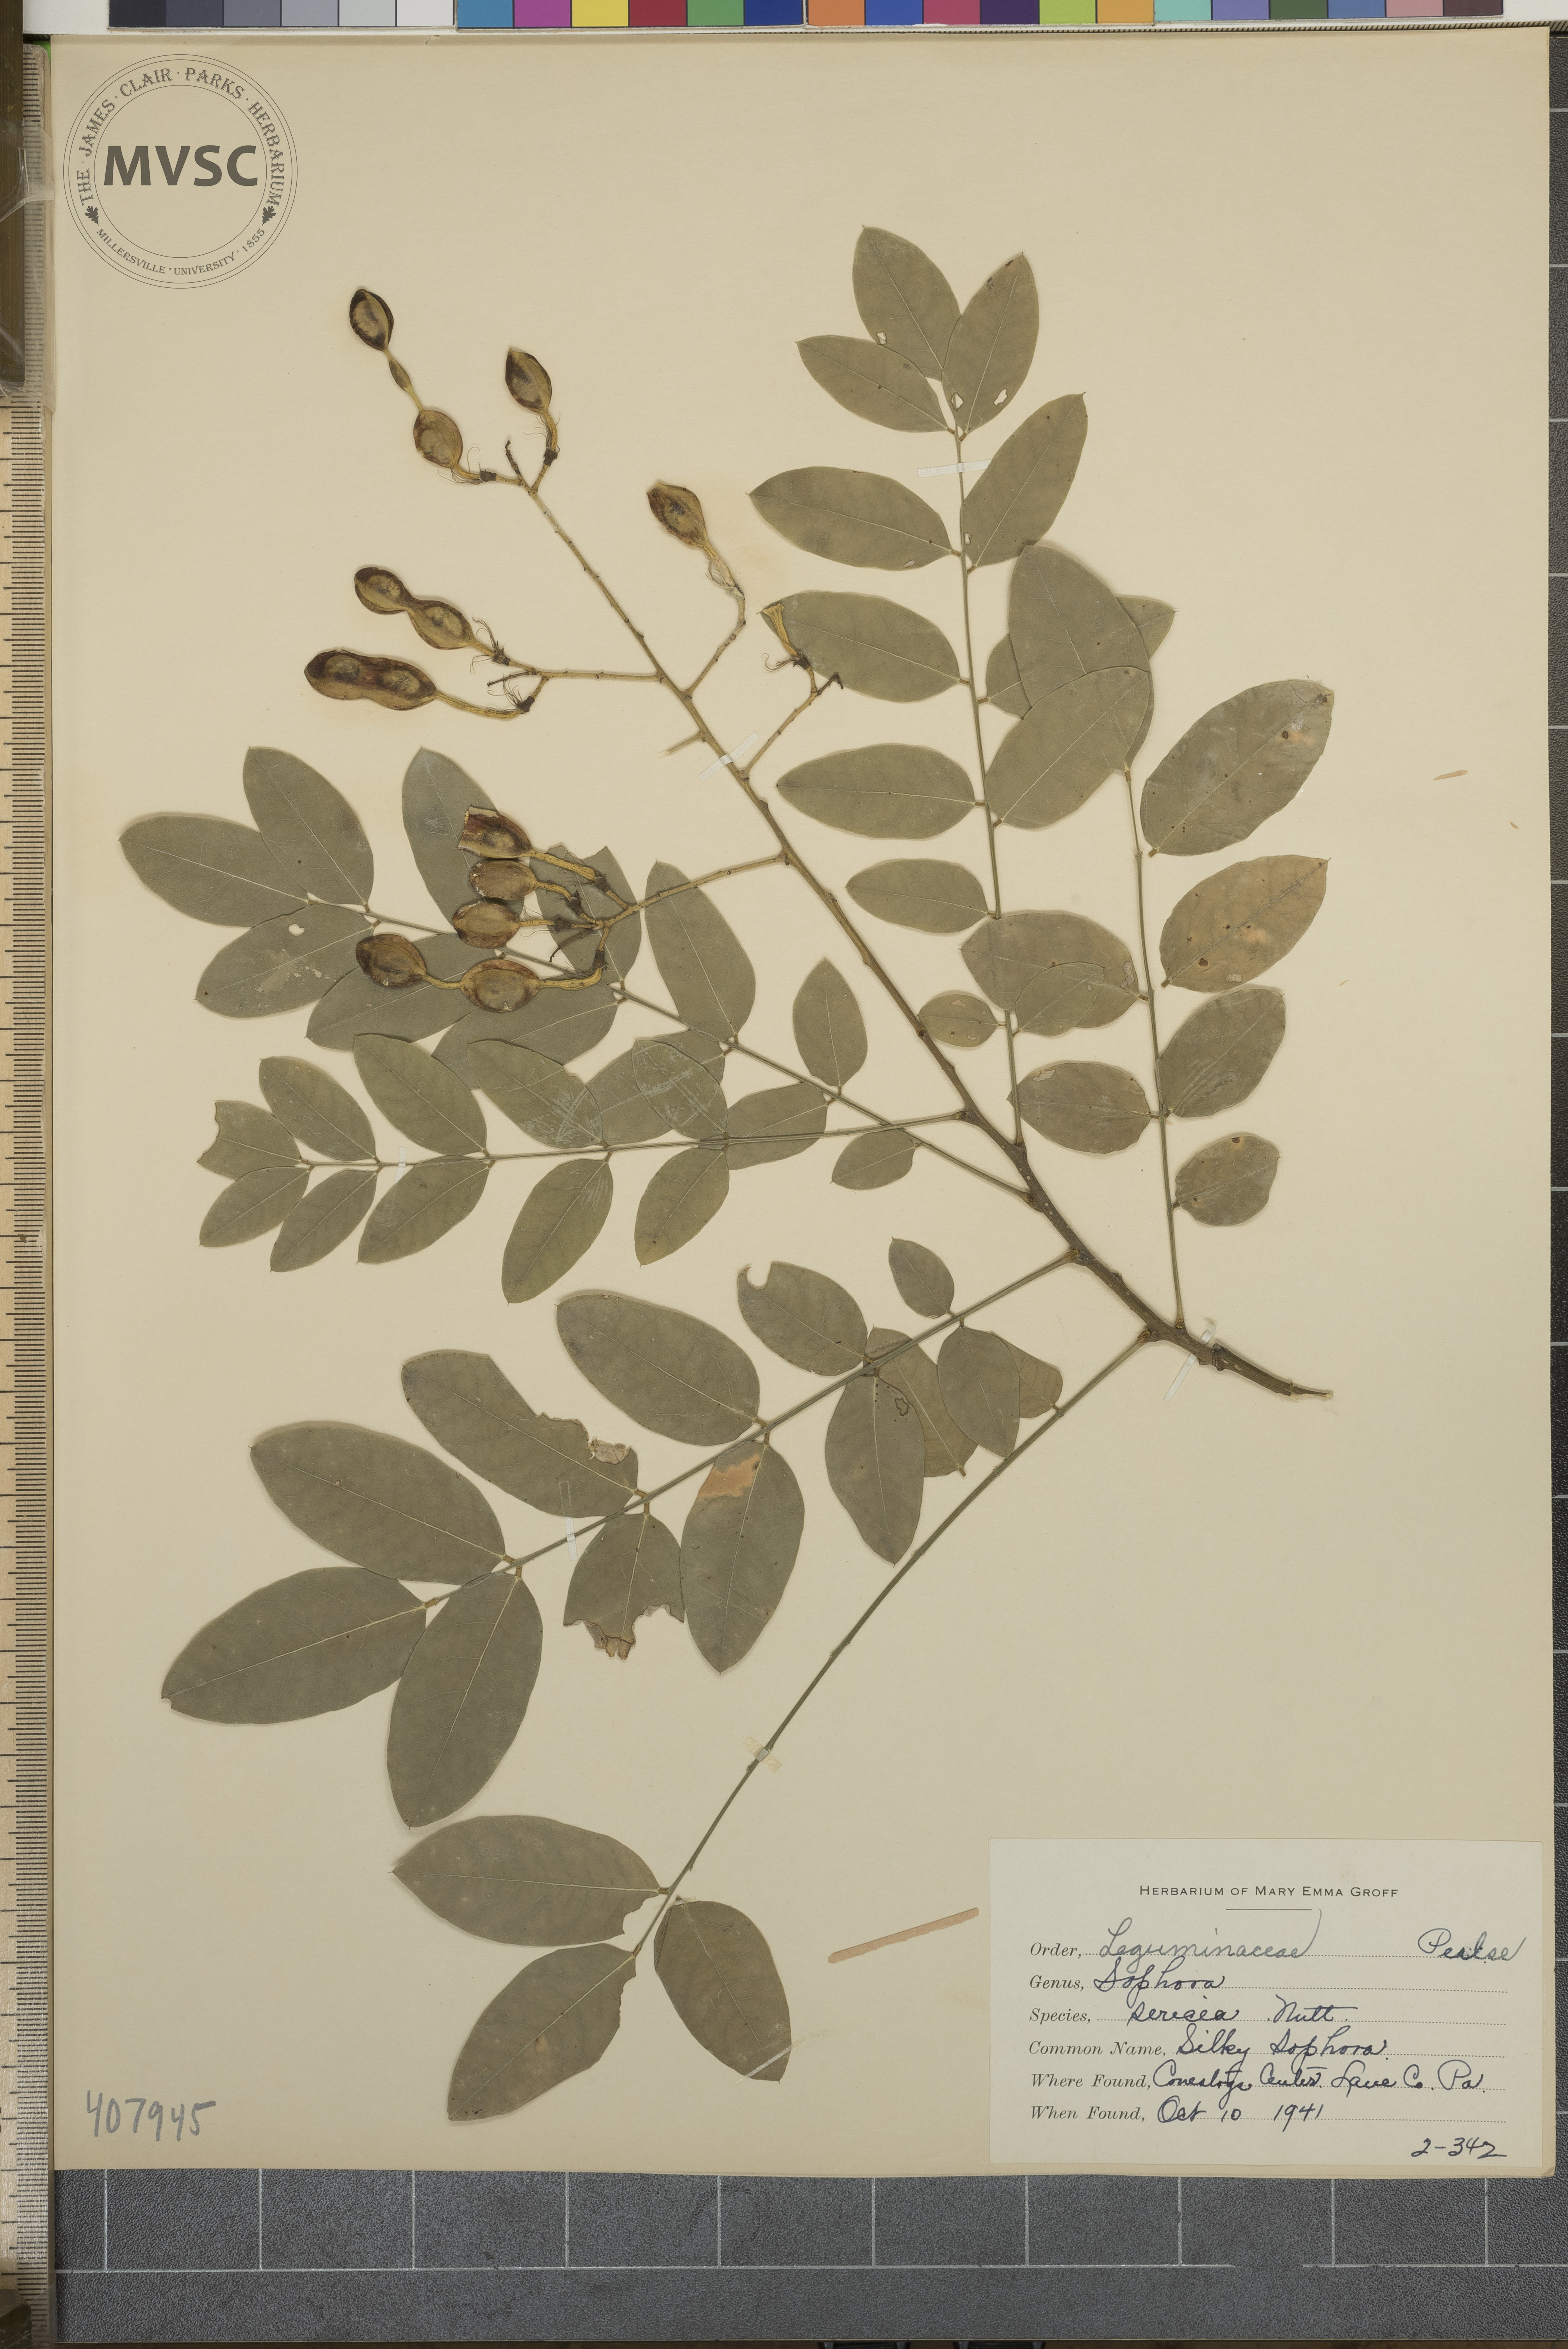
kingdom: Plantae
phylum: Tracheophyta
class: Magnoliopsida
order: Fabales
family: Fabaceae
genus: Styphnolobium
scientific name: Styphnolobium japonicum
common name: Silky Sophora
